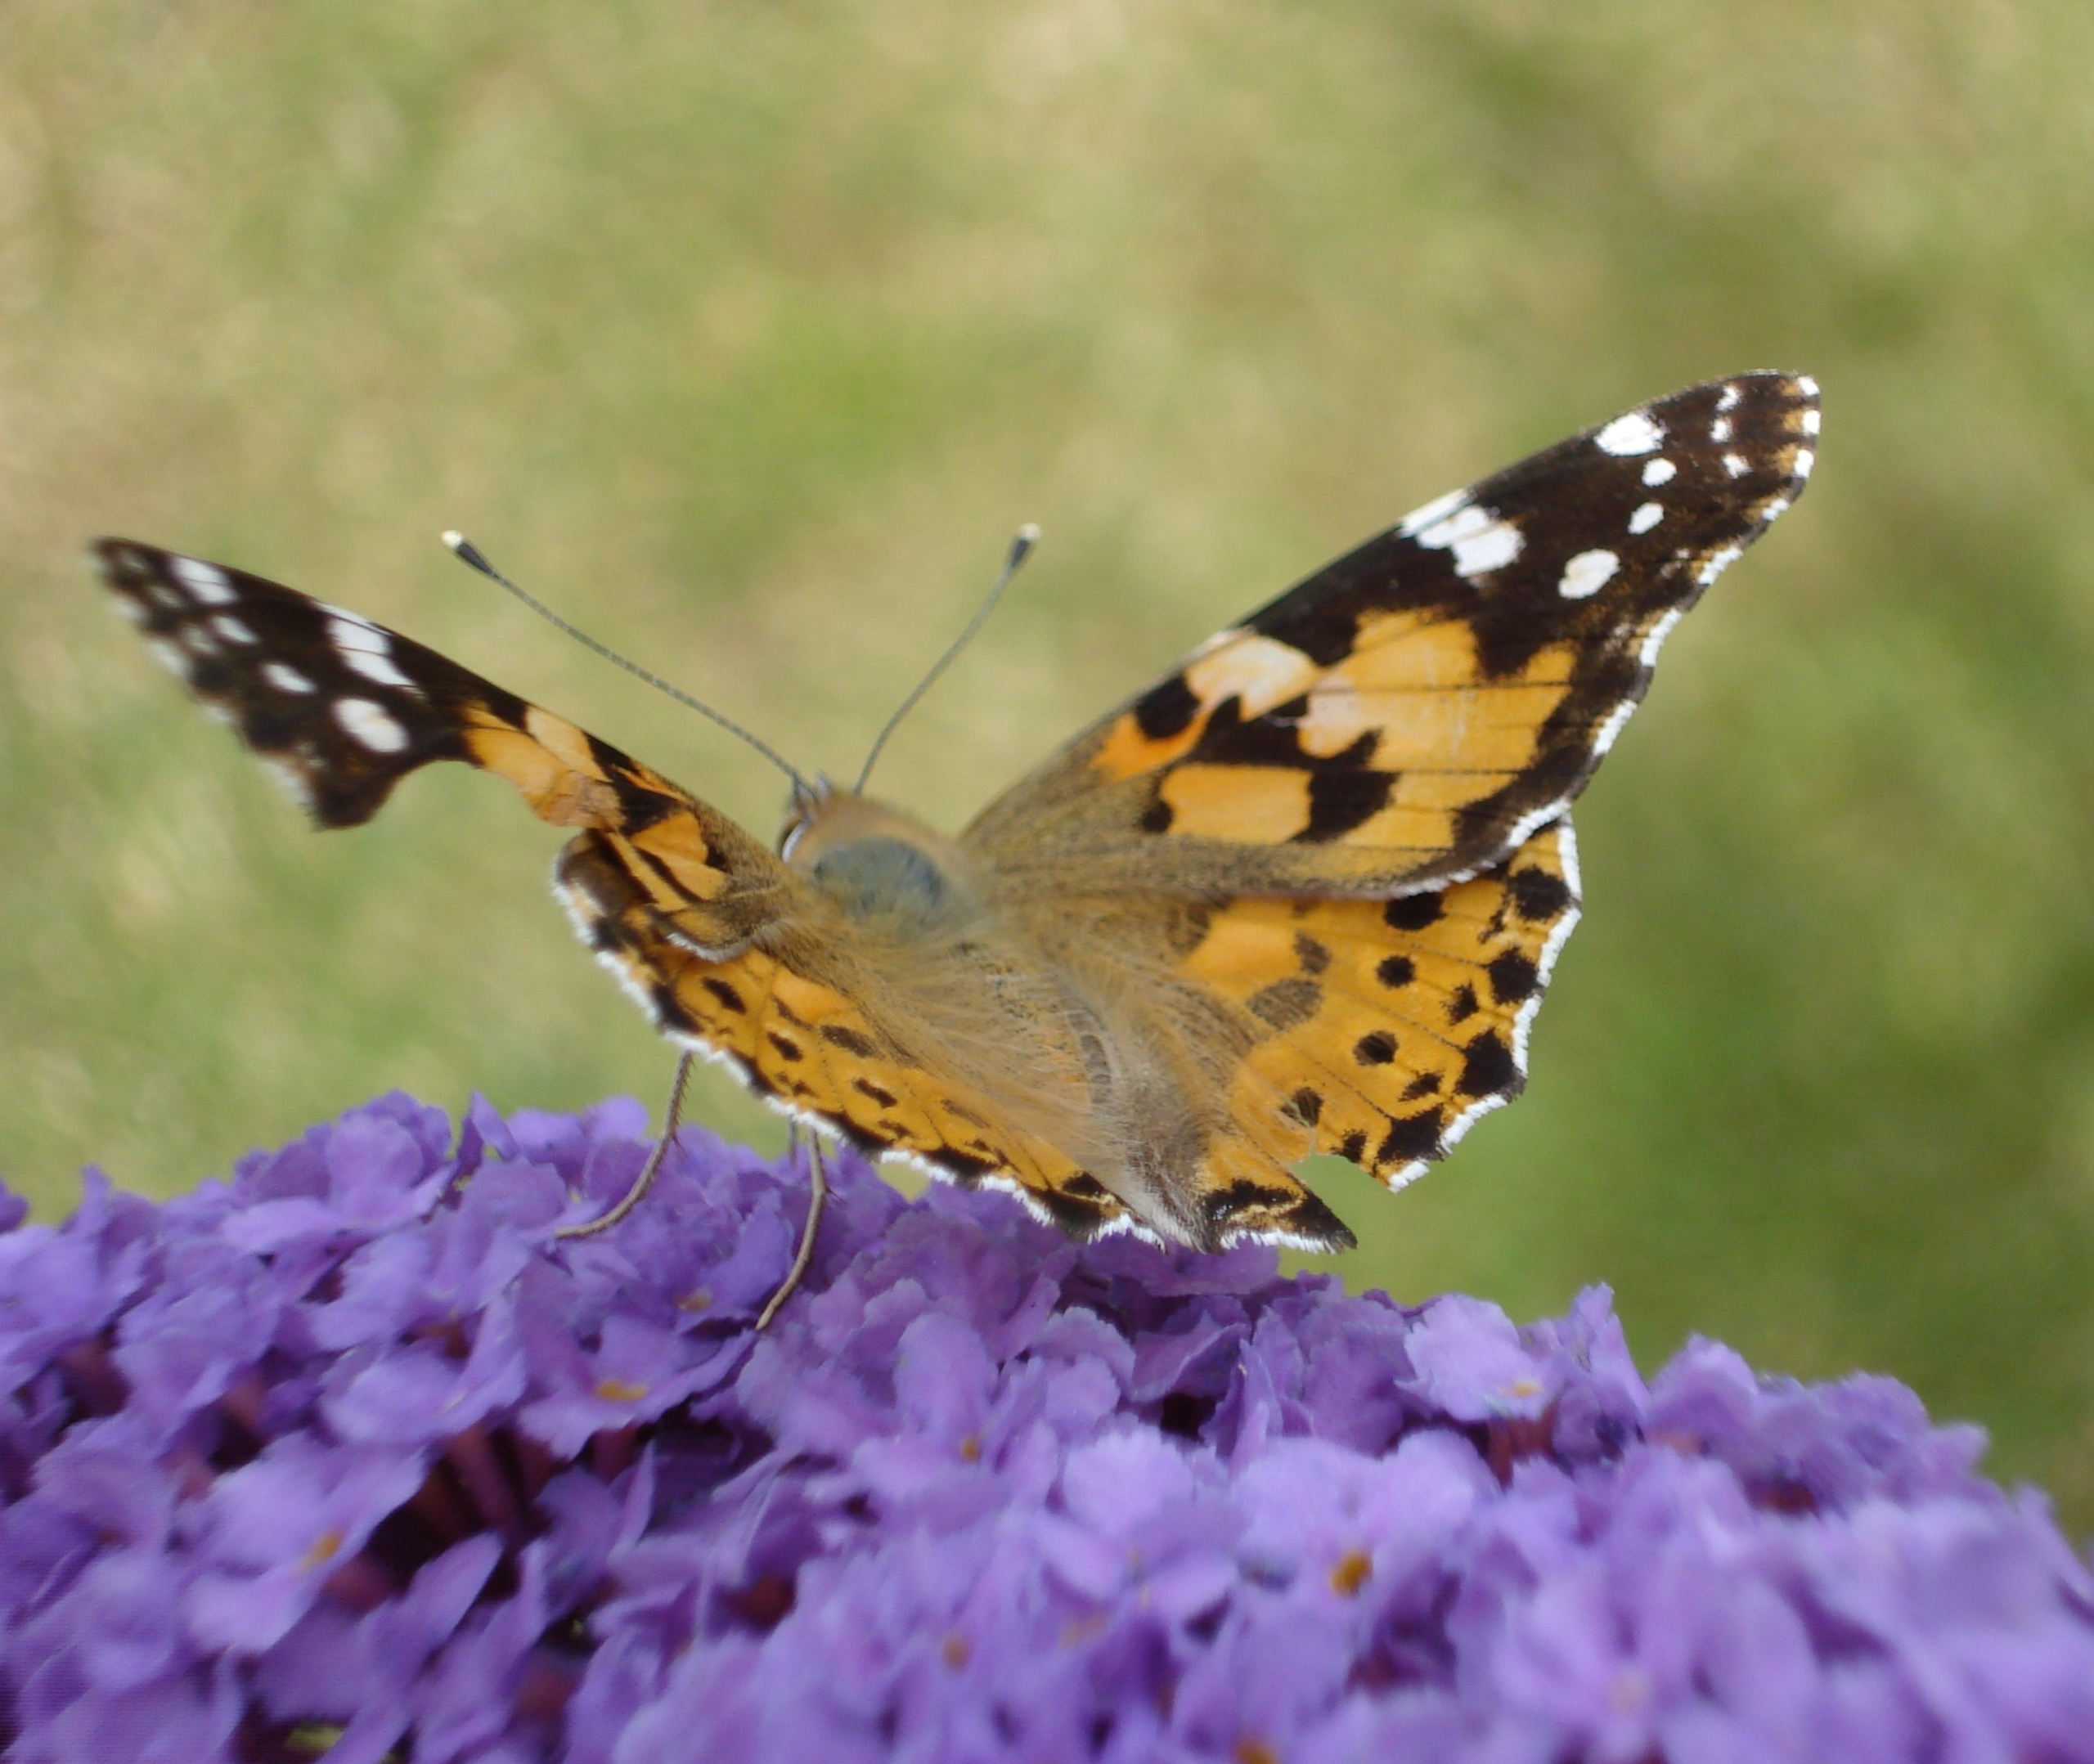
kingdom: Animalia
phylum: Arthropoda
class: Insecta
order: Lepidoptera
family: Nymphalidae
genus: Vanessa
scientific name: Vanessa cardui
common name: Tidselsommerfugl
